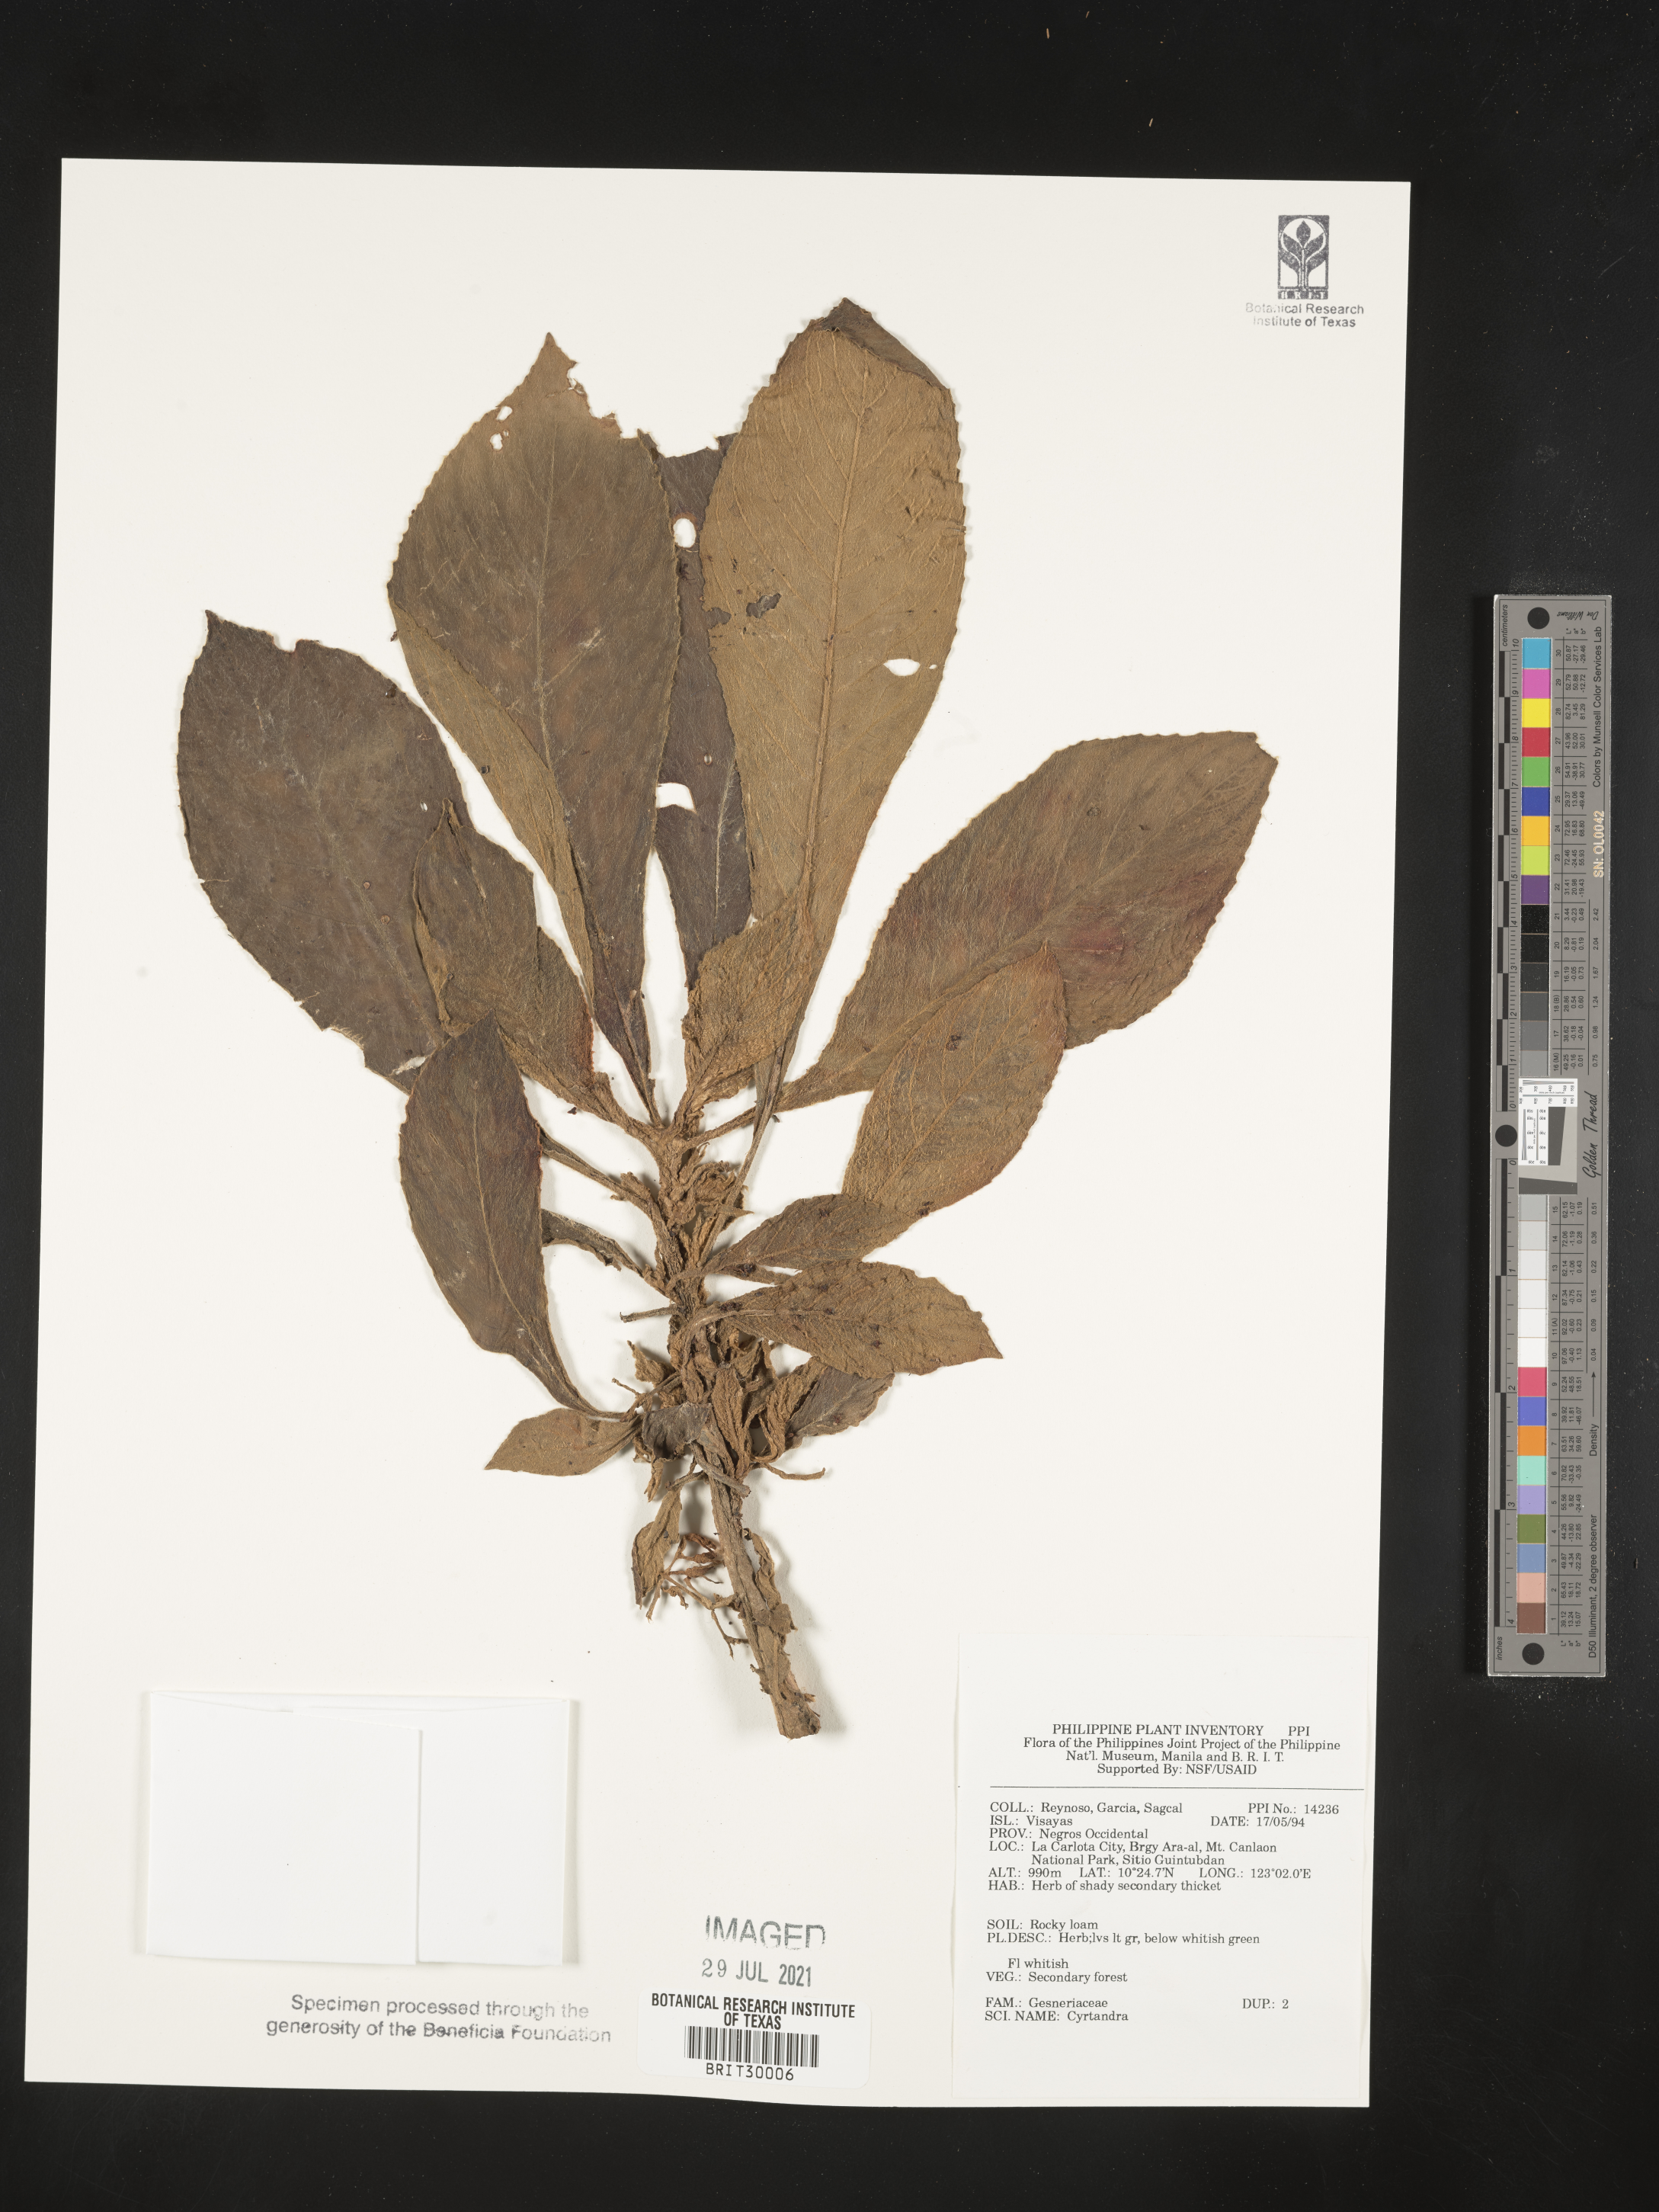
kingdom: Plantae
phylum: Tracheophyta
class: Magnoliopsida
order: Lamiales
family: Gesneriaceae
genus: Cyrtandra
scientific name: Cyrtandra
